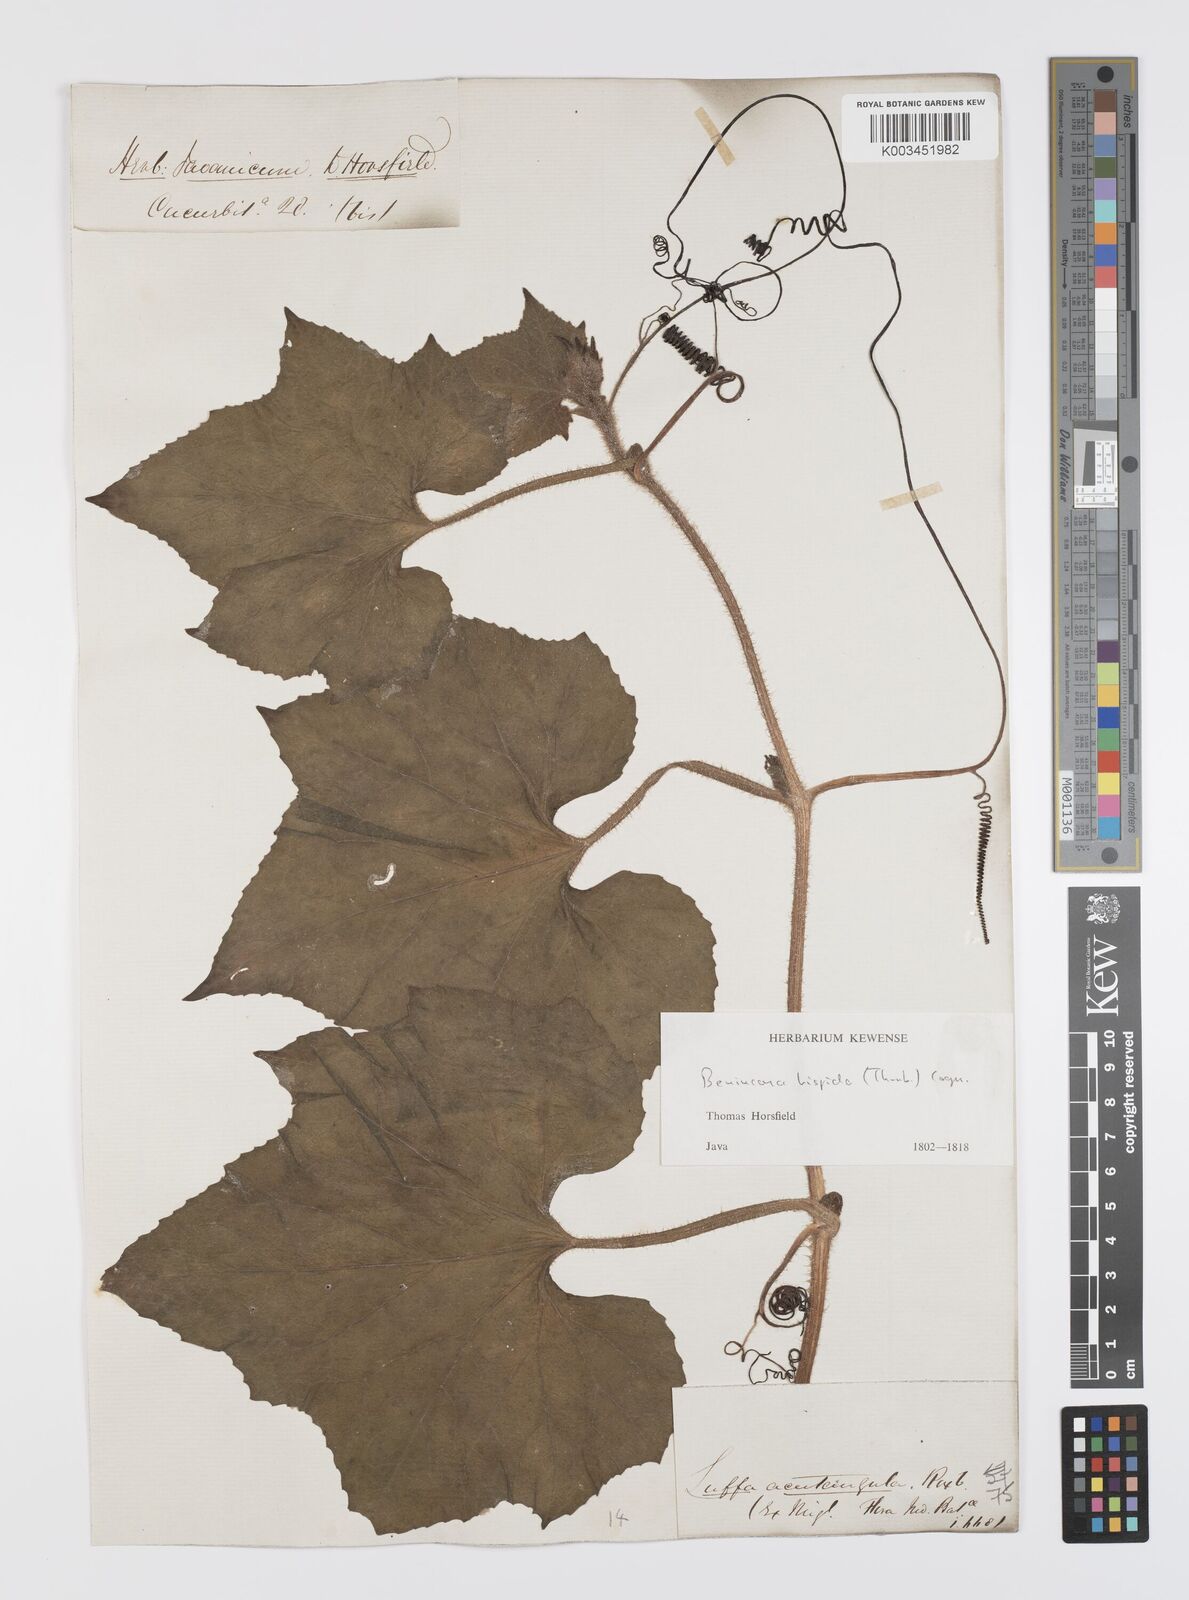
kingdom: Plantae
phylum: Tracheophyta
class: Magnoliopsida
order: Cucurbitales
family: Cucurbitaceae
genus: Benincasa
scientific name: Benincasa hispida
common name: Chinese-watermelon
